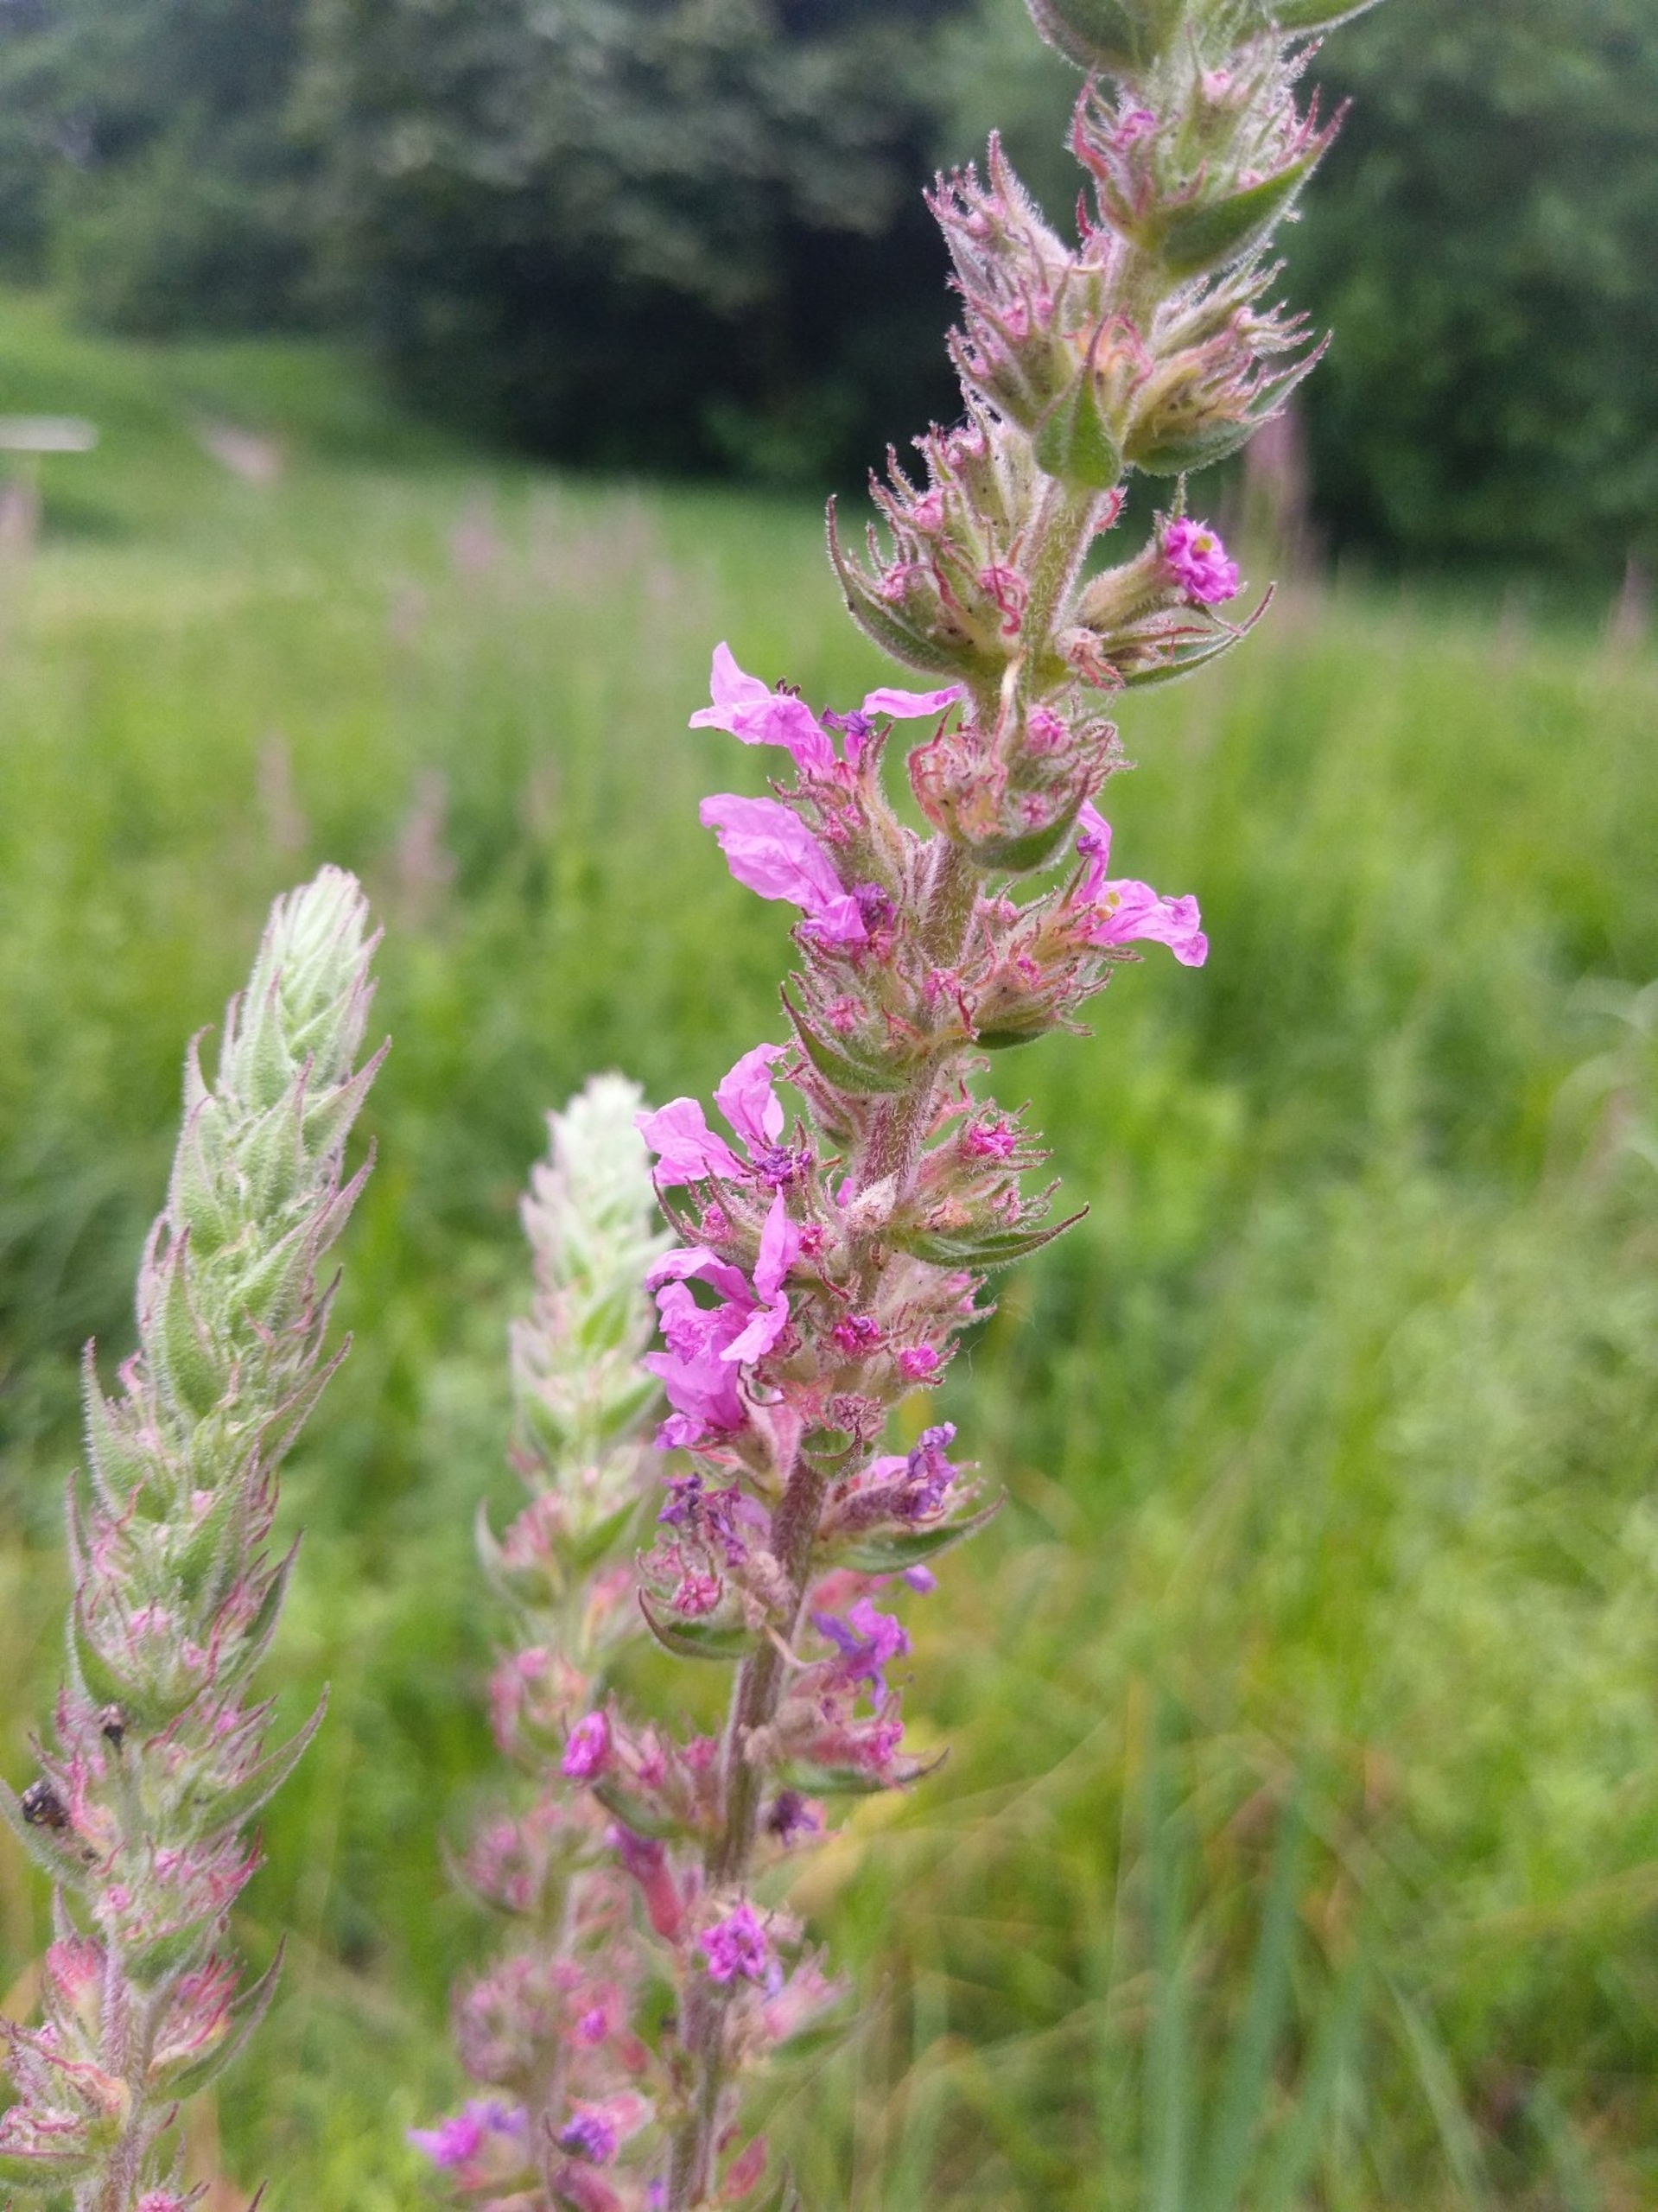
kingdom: Plantae
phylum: Tracheophyta
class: Magnoliopsida
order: Myrtales
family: Lythraceae
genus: Lythrum
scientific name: Lythrum salicaria
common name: Kattehale
